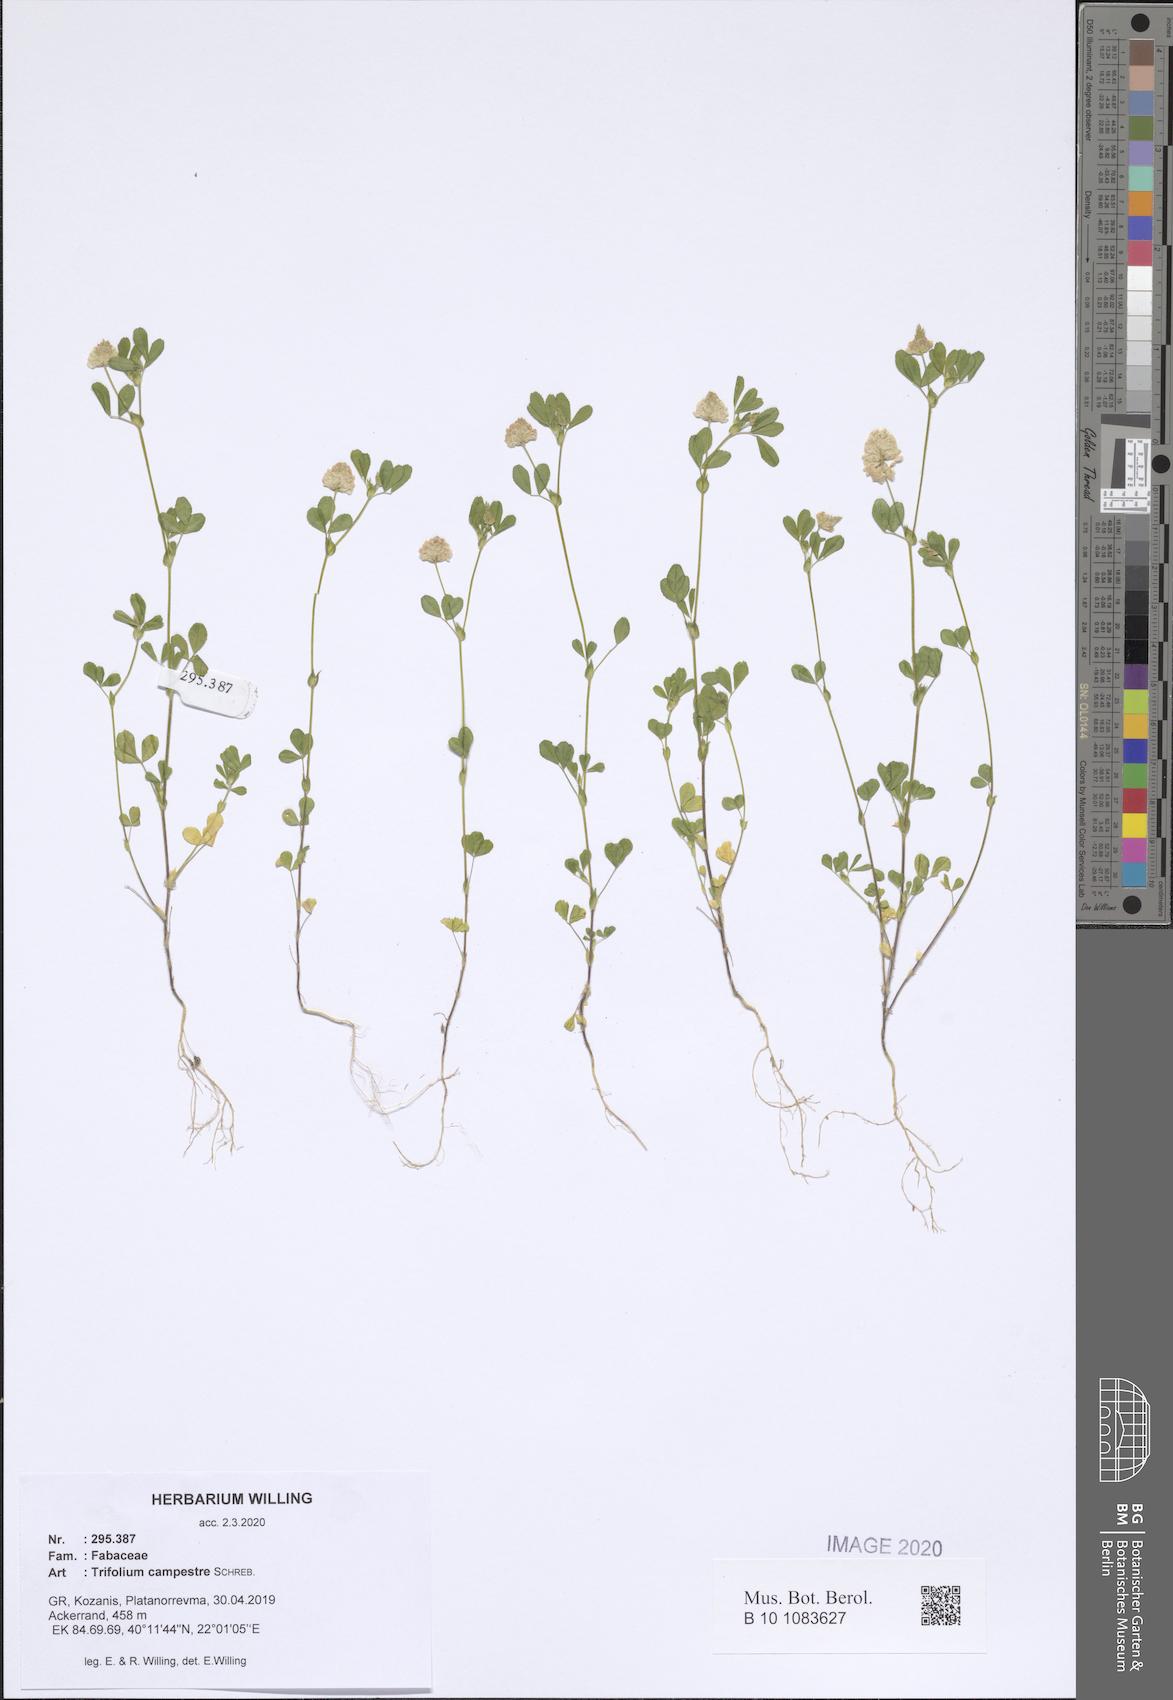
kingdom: Plantae
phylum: Tracheophyta
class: Magnoliopsida
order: Fabales
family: Fabaceae
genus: Trifolium
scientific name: Trifolium campestre
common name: Field clover
